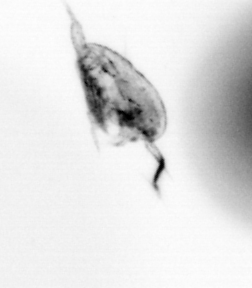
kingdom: Animalia
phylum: Arthropoda
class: Copepoda
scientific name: Copepoda
